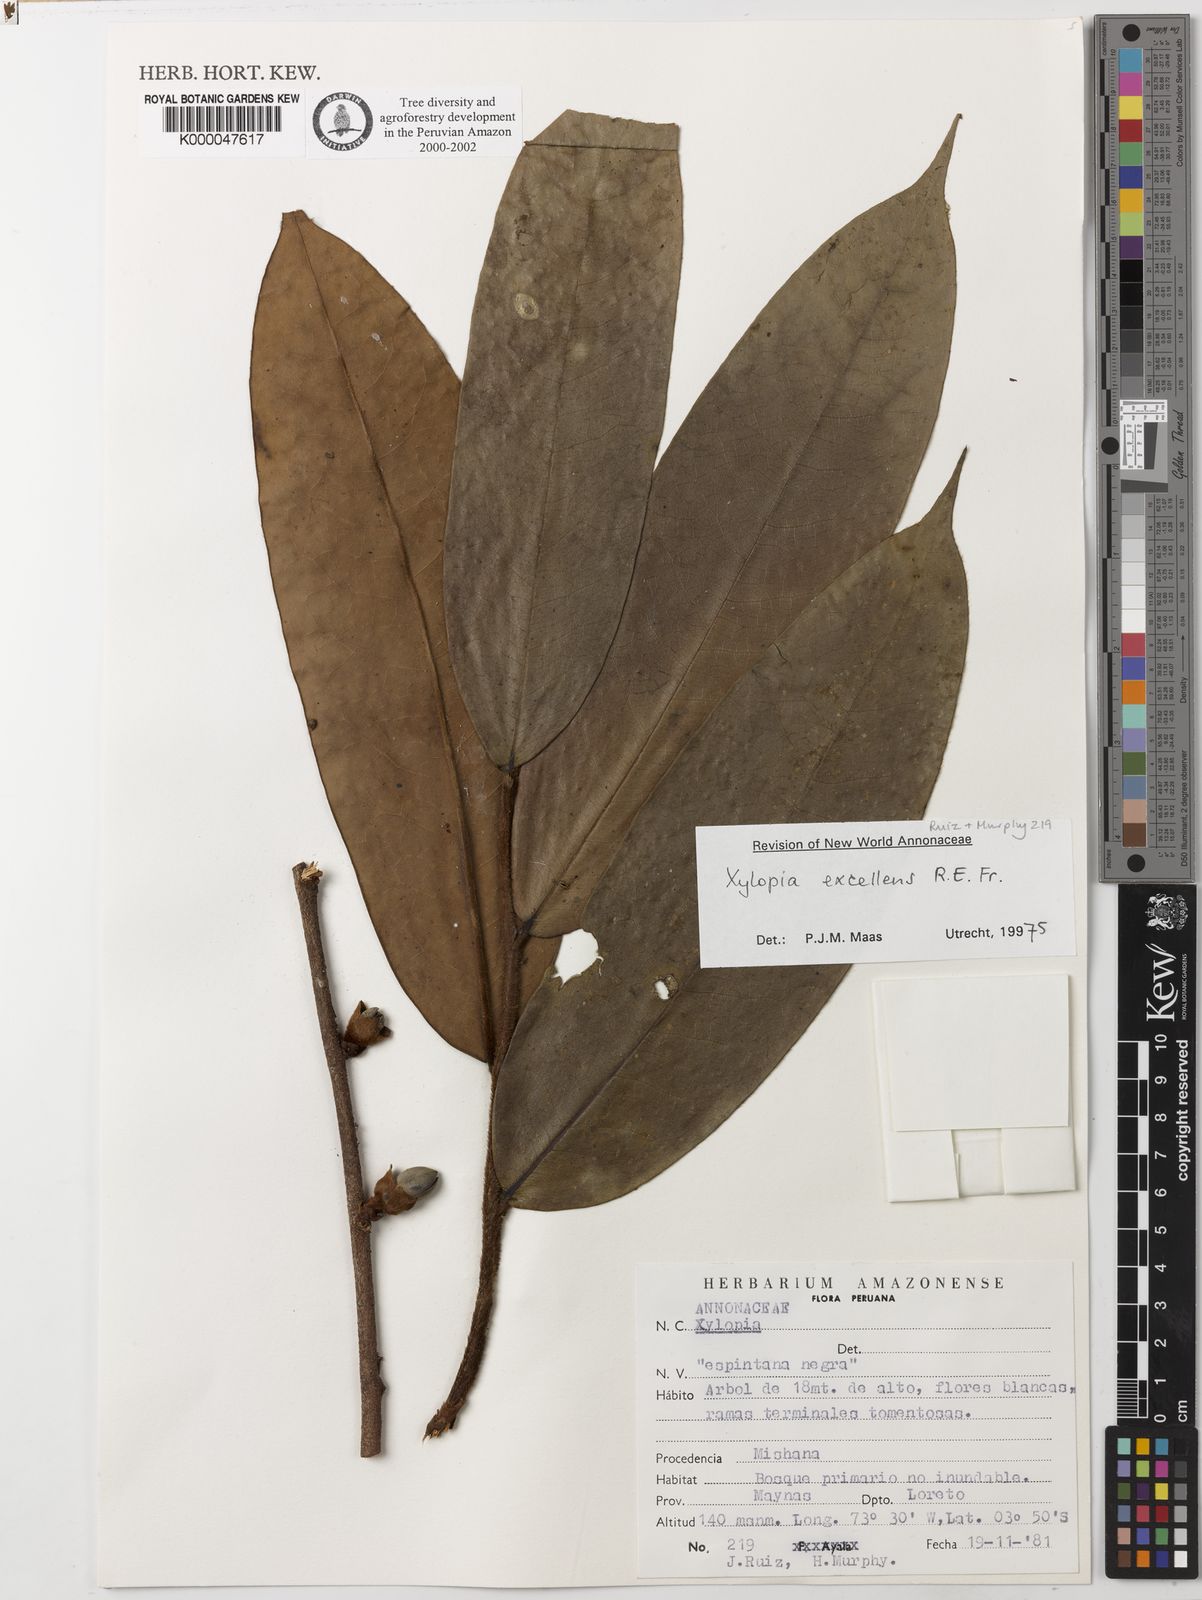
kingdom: Plantae
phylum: Tracheophyta
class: Magnoliopsida
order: Magnoliales
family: Annonaceae
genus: Xylopia
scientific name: Xylopia excellens
